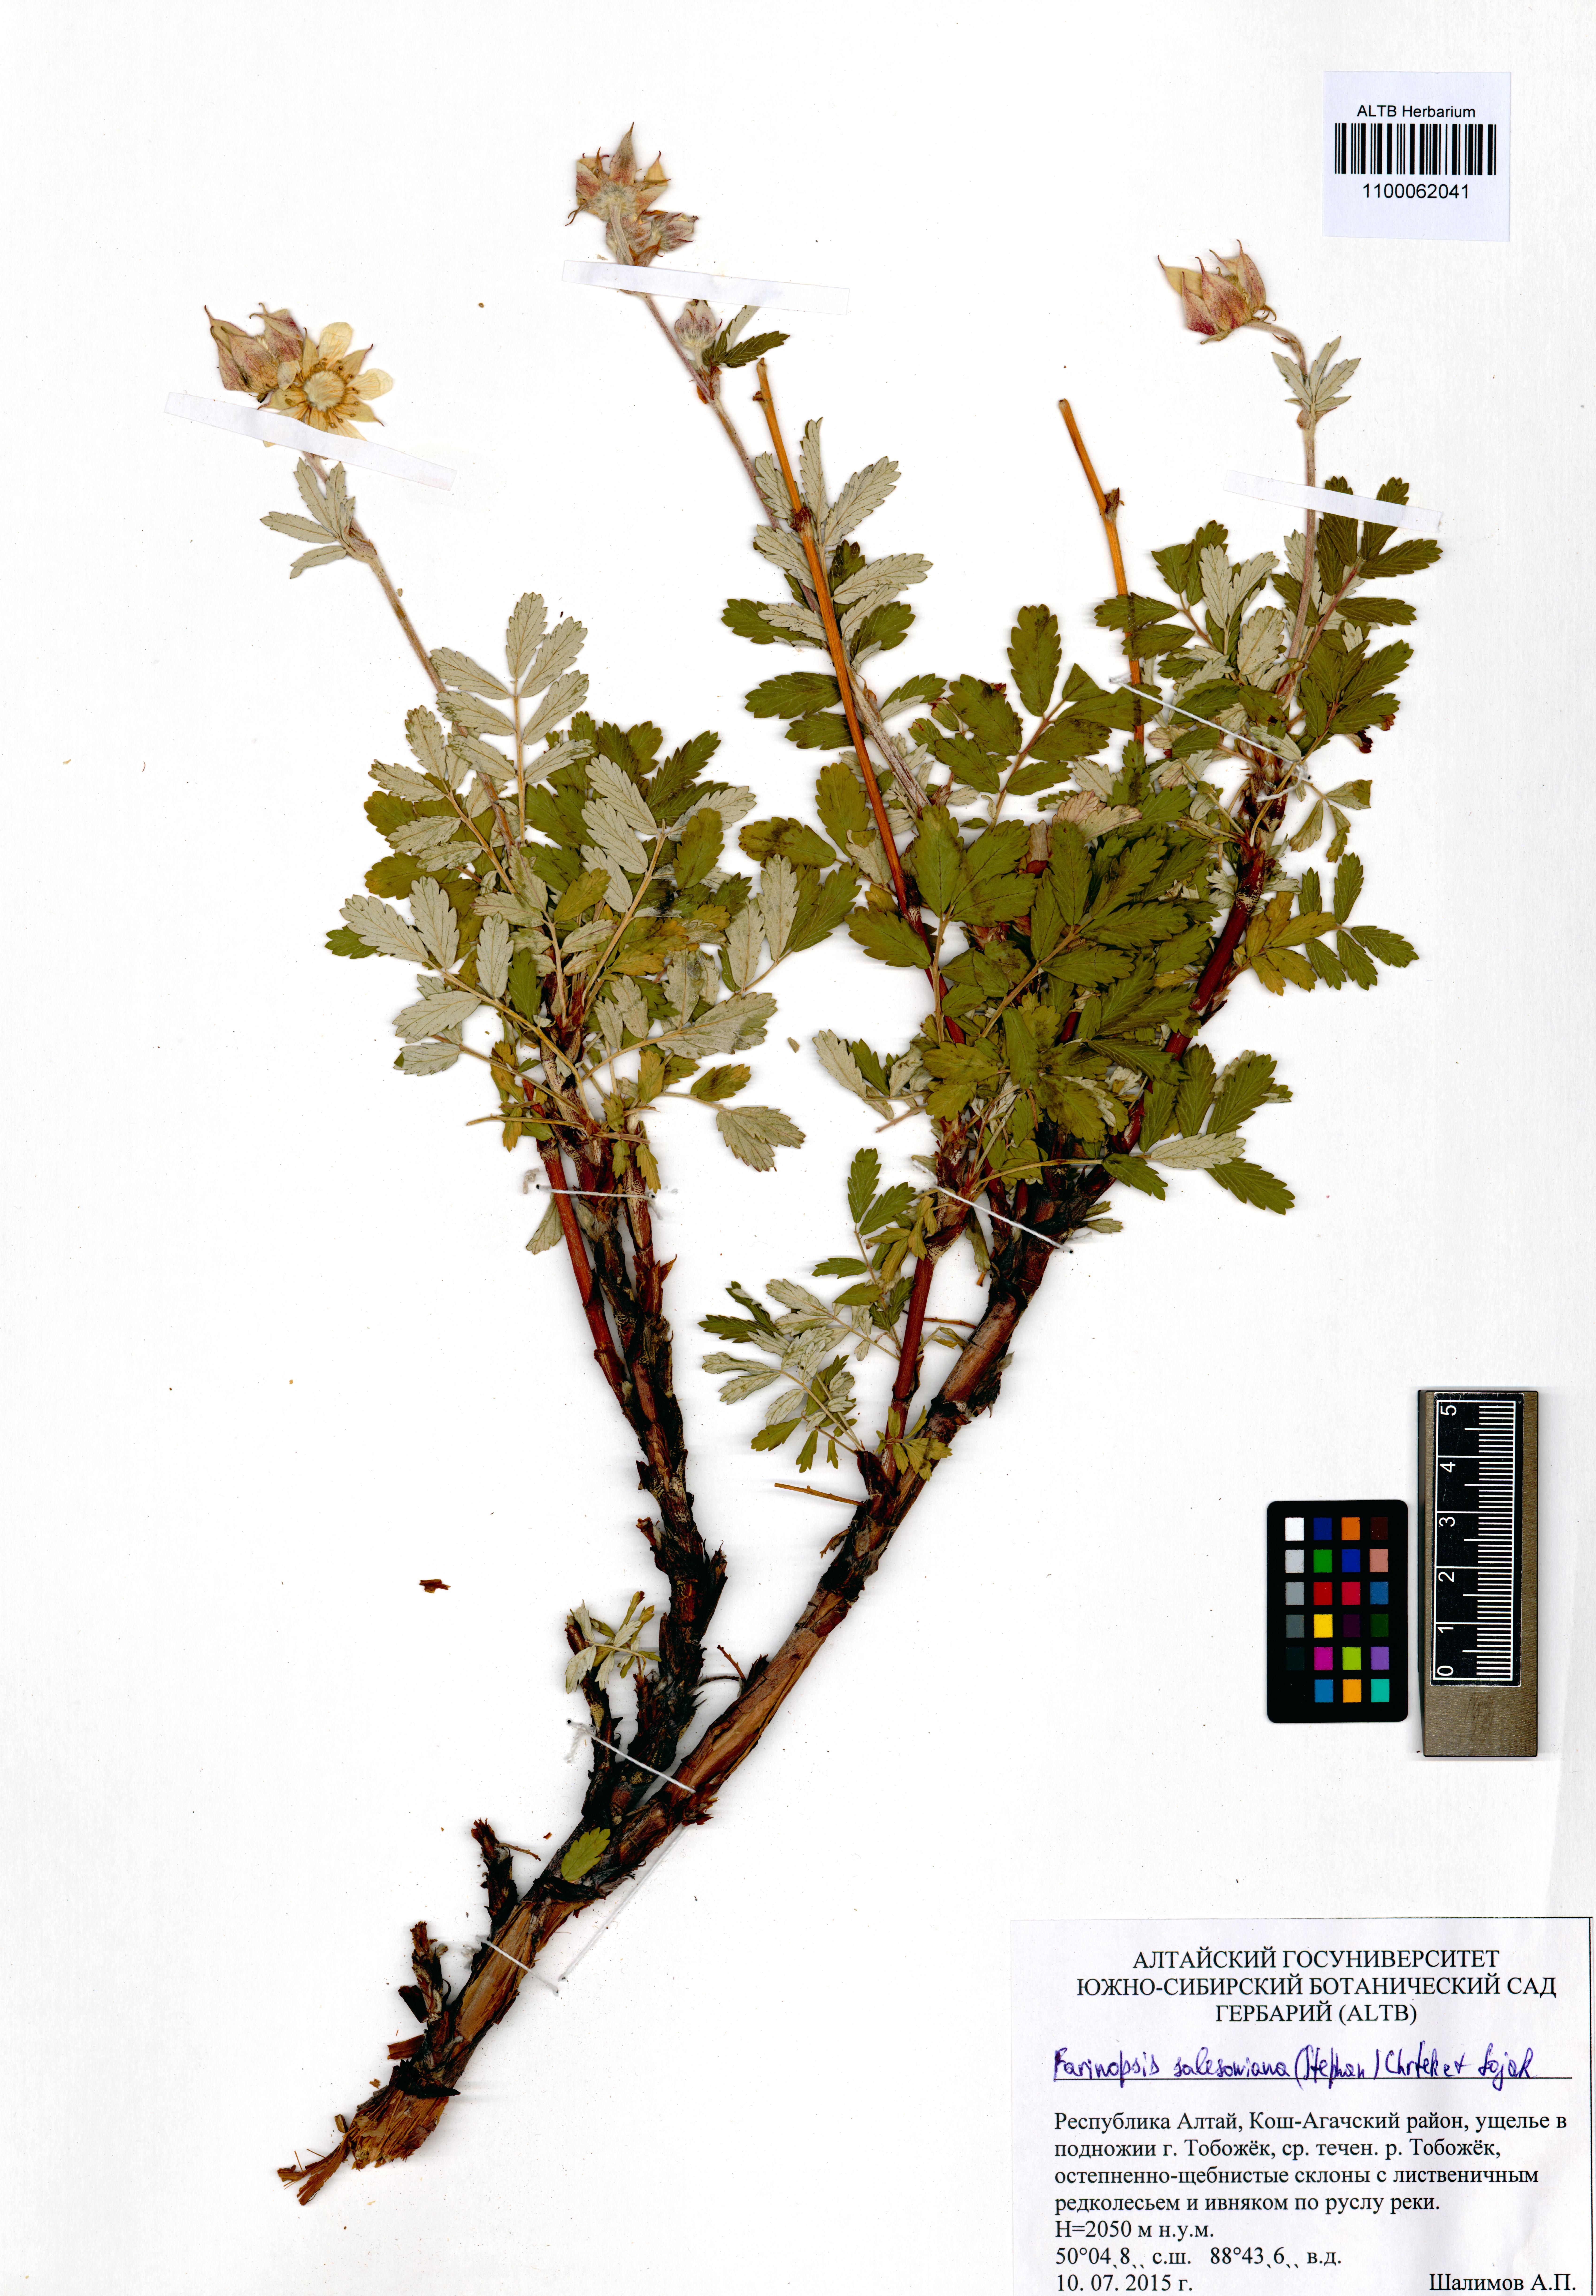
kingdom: Plantae
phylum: Tracheophyta
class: Magnoliopsida
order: Rosales
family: Rosaceae
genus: Farinopsis
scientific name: Farinopsis salesoviana
